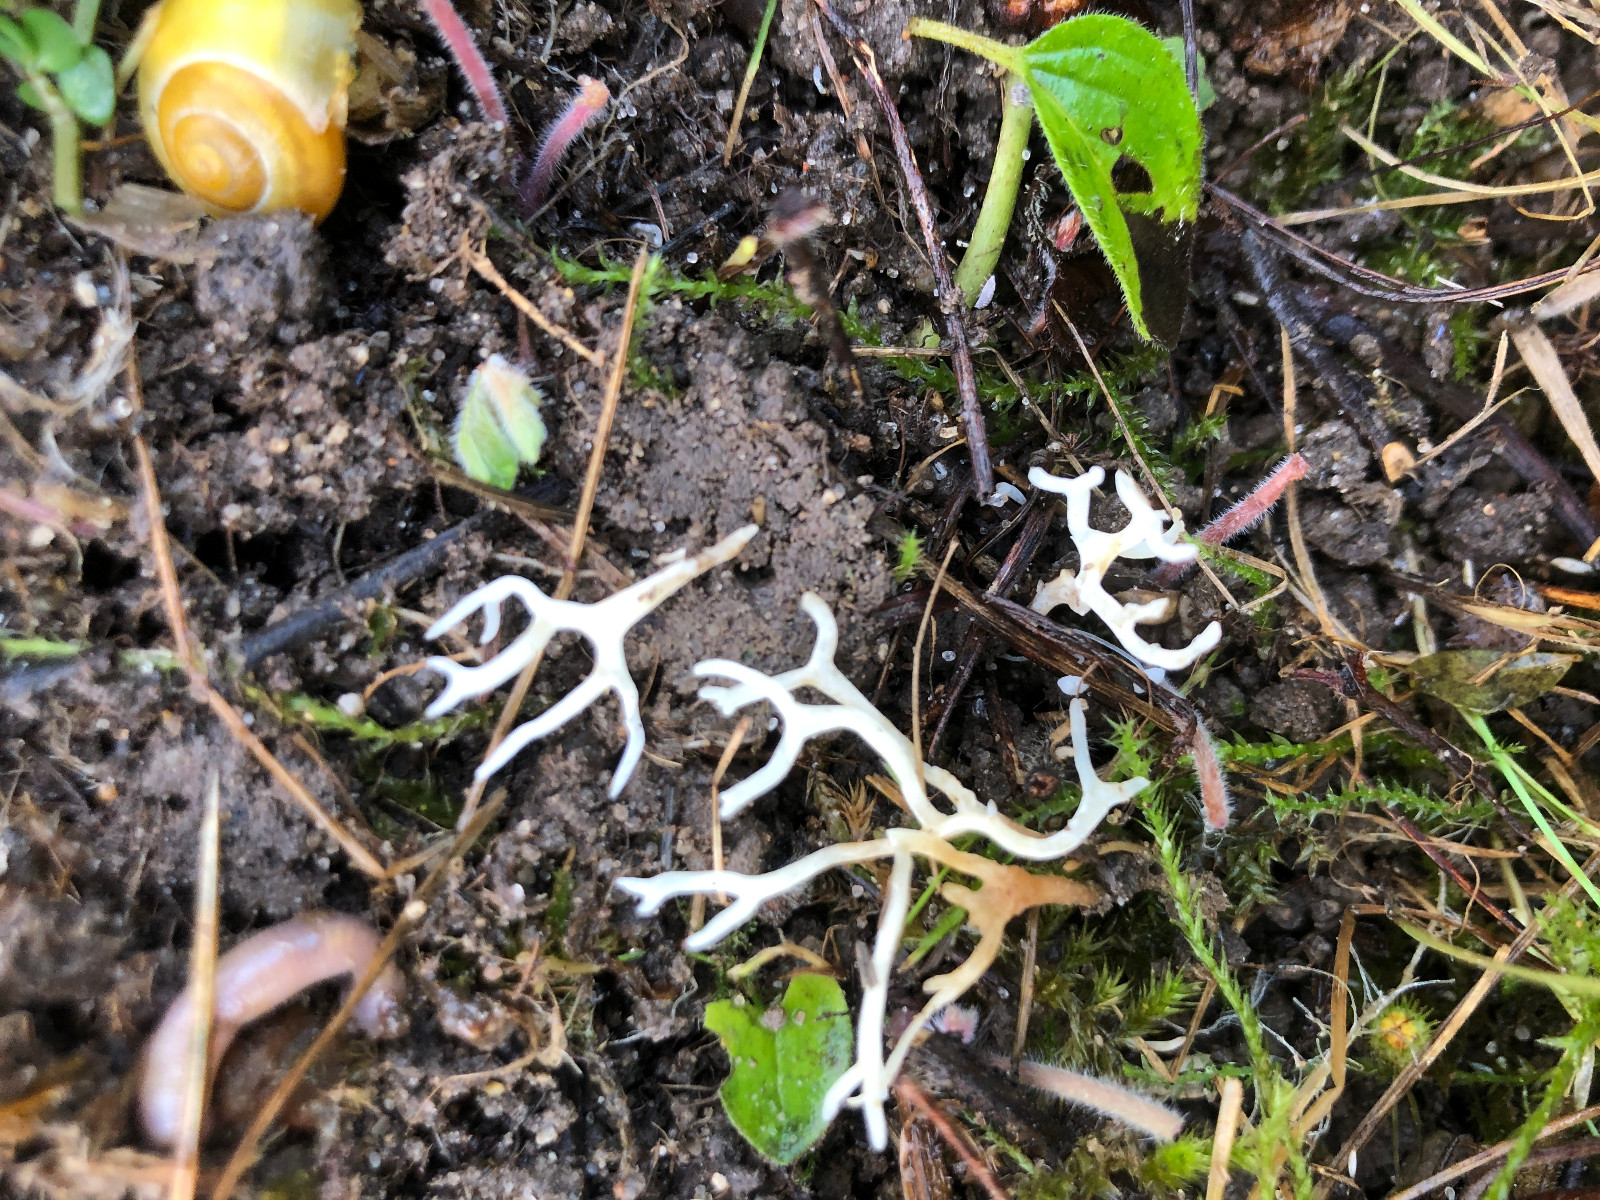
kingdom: Fungi
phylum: Basidiomycota
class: Agaricomycetes
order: Agaricales
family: Clavariaceae
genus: Ramariopsis
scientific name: Ramariopsis
